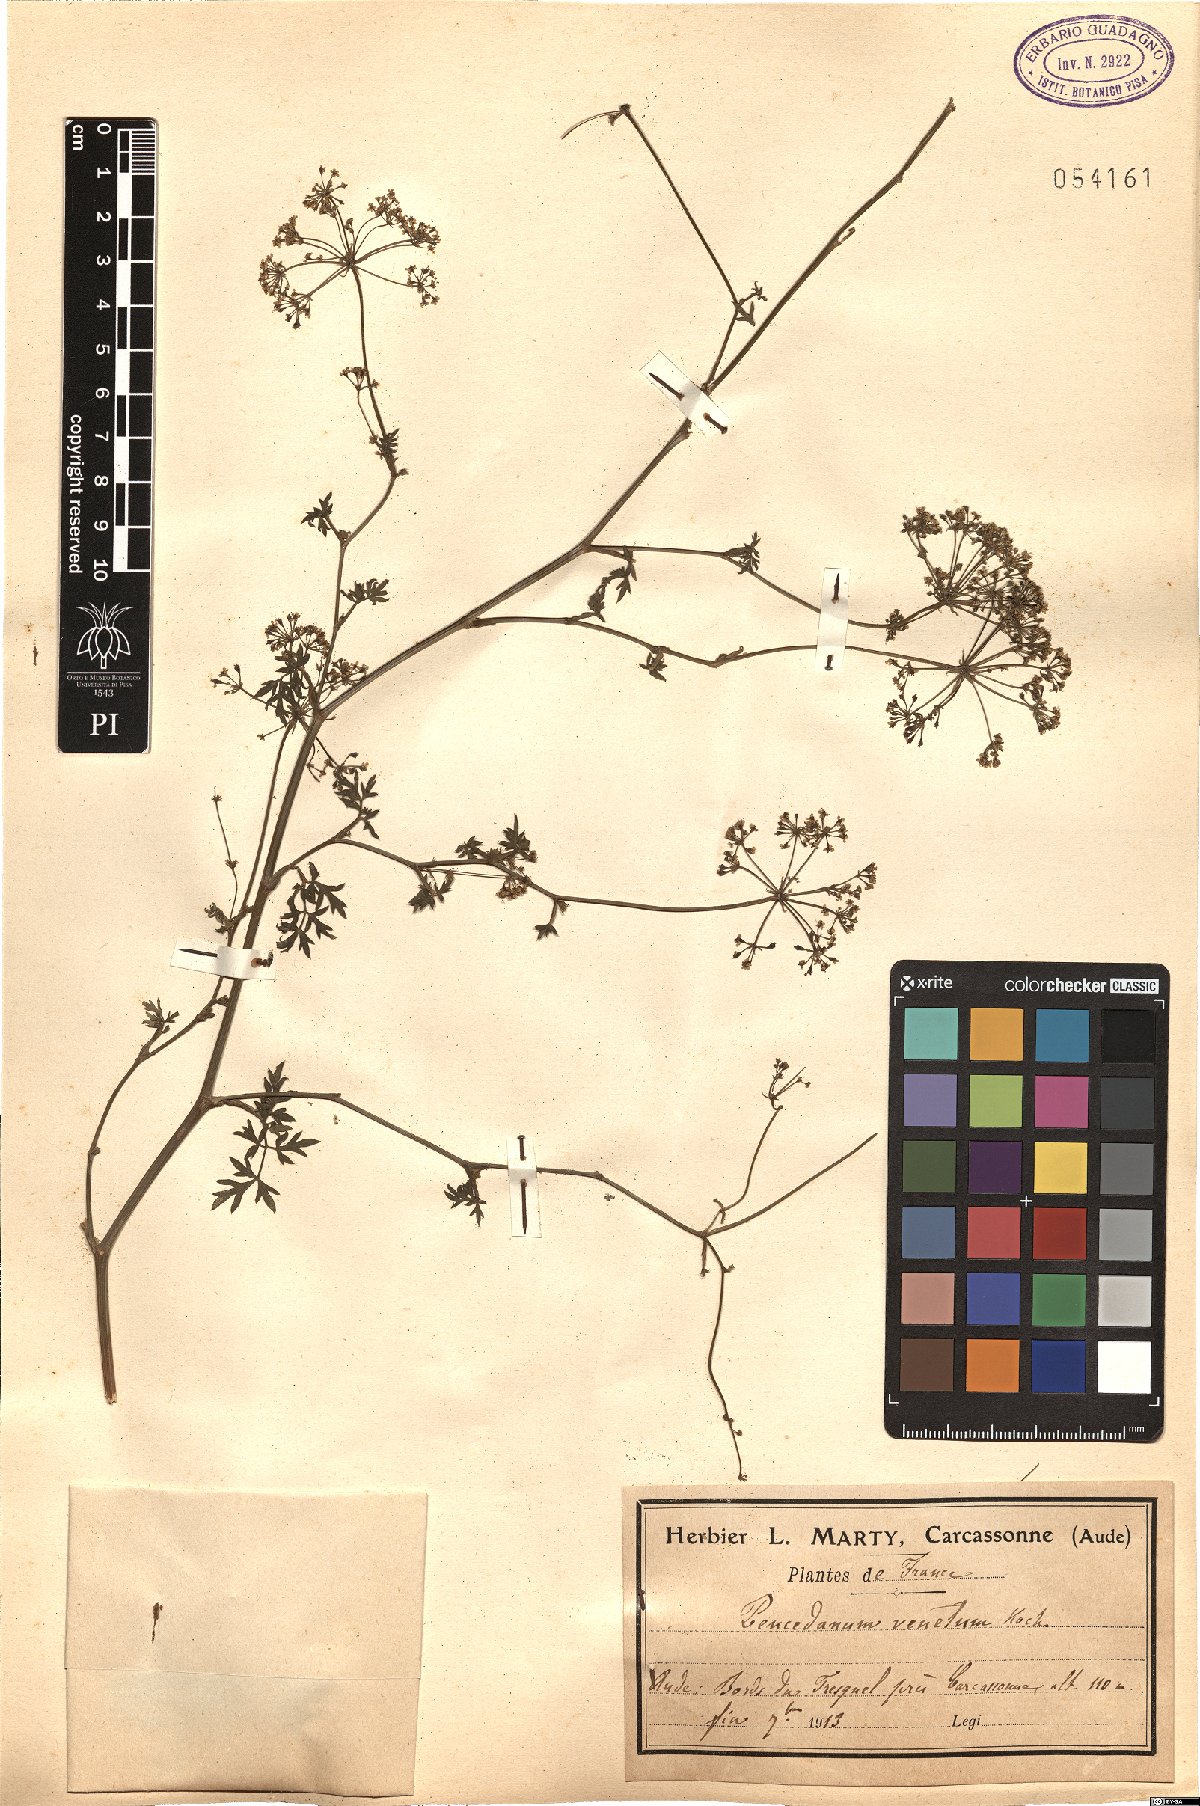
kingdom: Plantae
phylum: Tracheophyta
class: Magnoliopsida
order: Apiales
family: Apiaceae
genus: Xanthoselinum
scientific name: Xanthoselinum alsaticum
